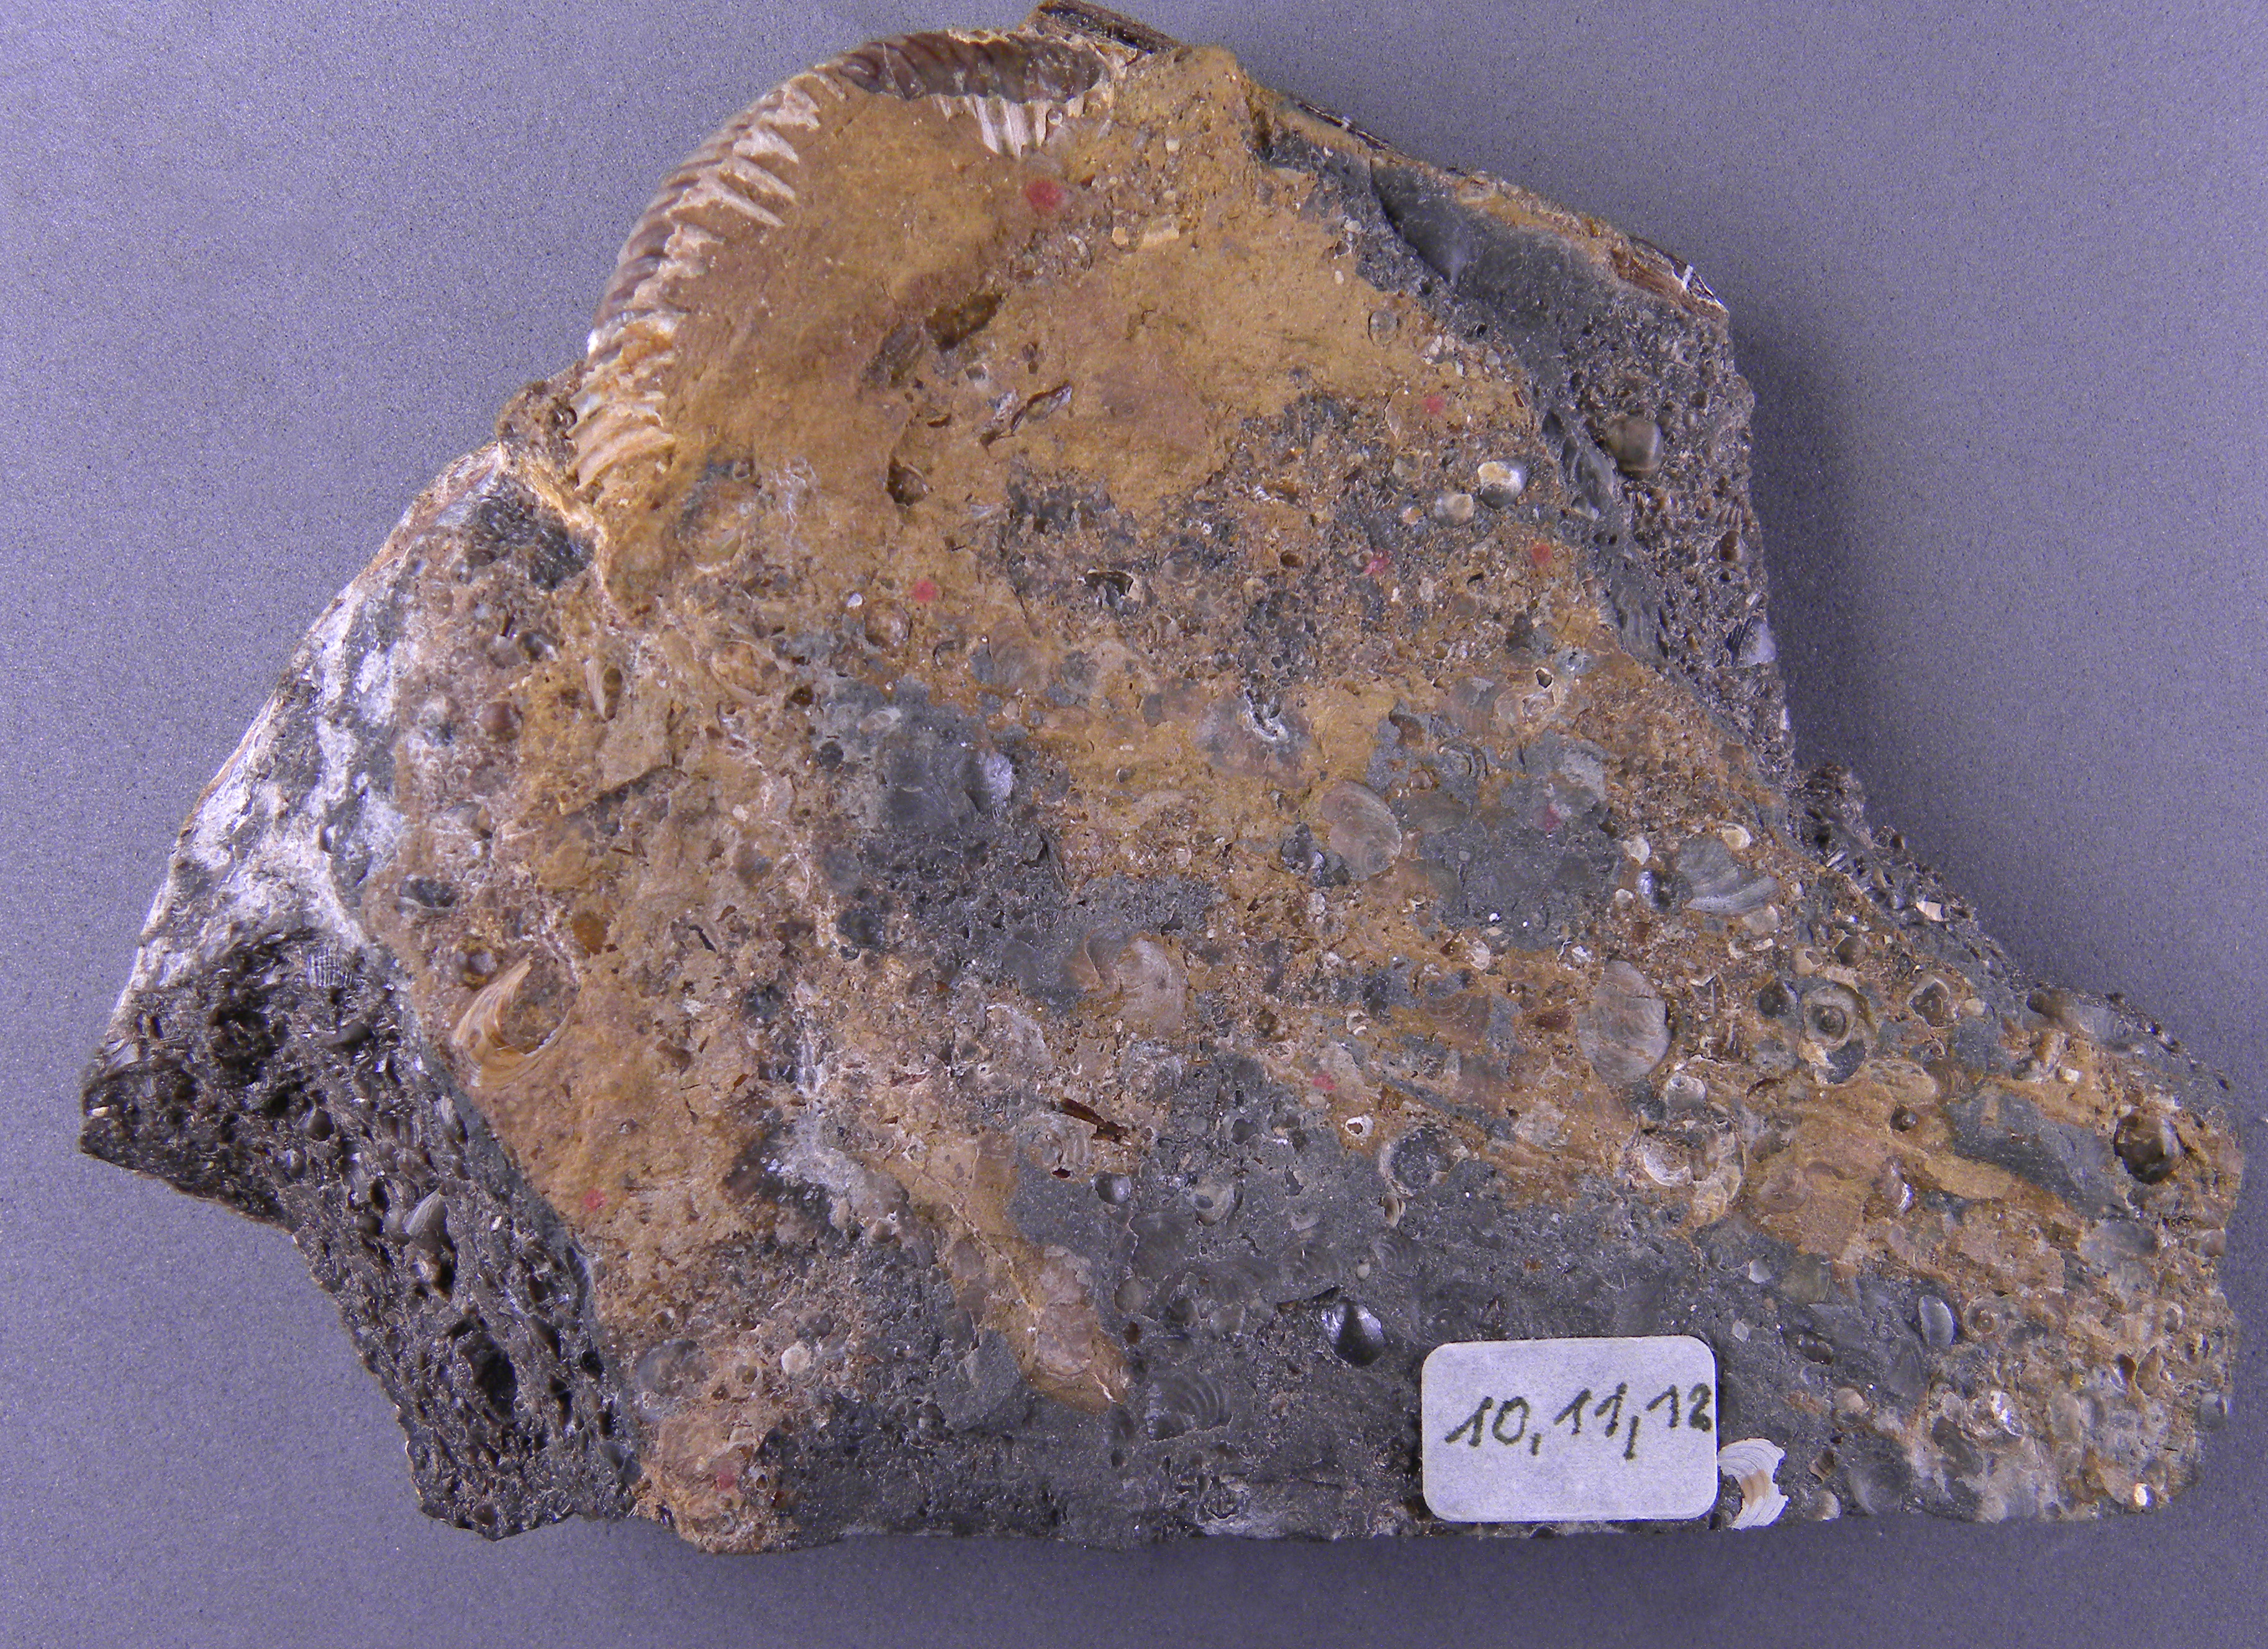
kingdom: Animalia
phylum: Mollusca
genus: Globorilusopsis
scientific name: Globorilusopsis
